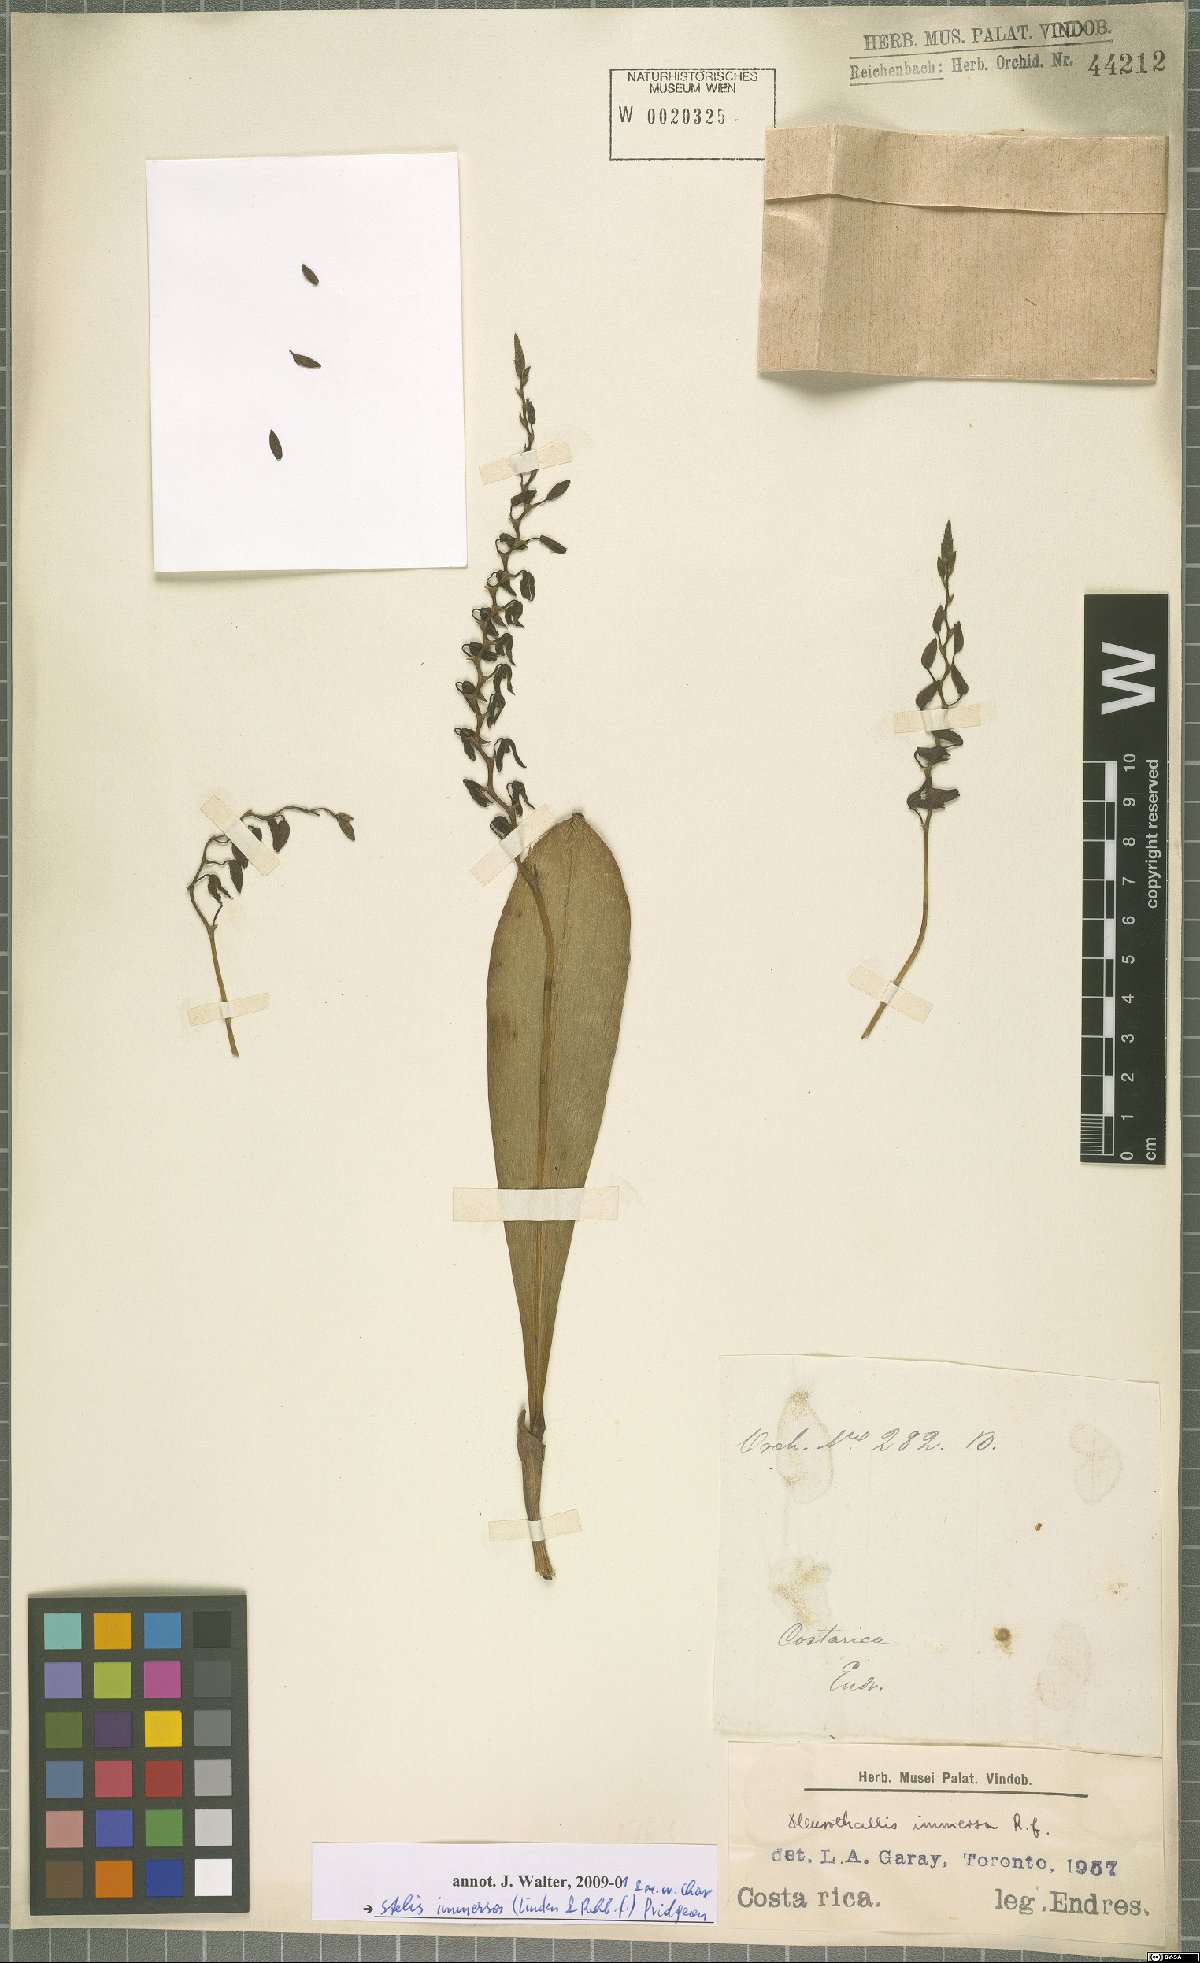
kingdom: Plantae
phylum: Tracheophyta
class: Liliopsida
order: Asparagales
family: Orchidaceae
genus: Stelis
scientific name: Stelis immersa
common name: Sunken pleurothallis
